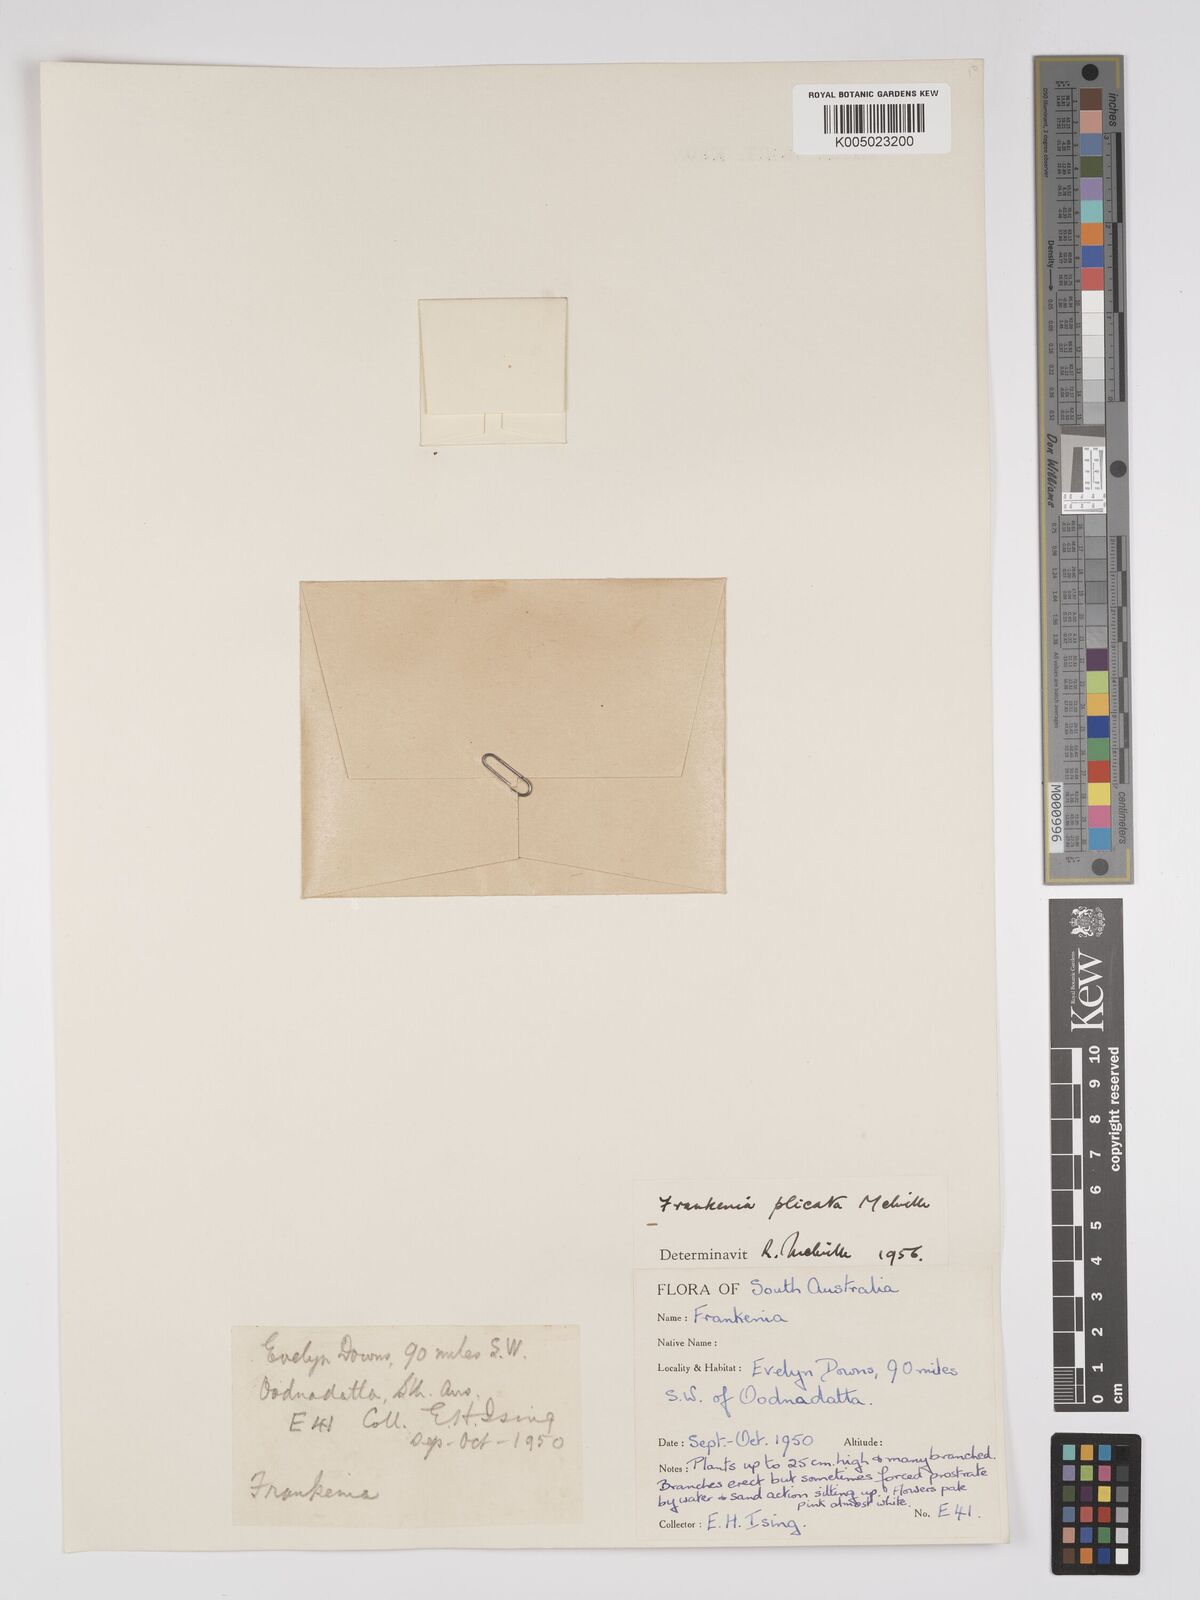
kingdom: Plantae
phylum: Tracheophyta
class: Magnoliopsida
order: Caryophyllales
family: Frankeniaceae
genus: Frankenia
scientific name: Frankenia plicata
